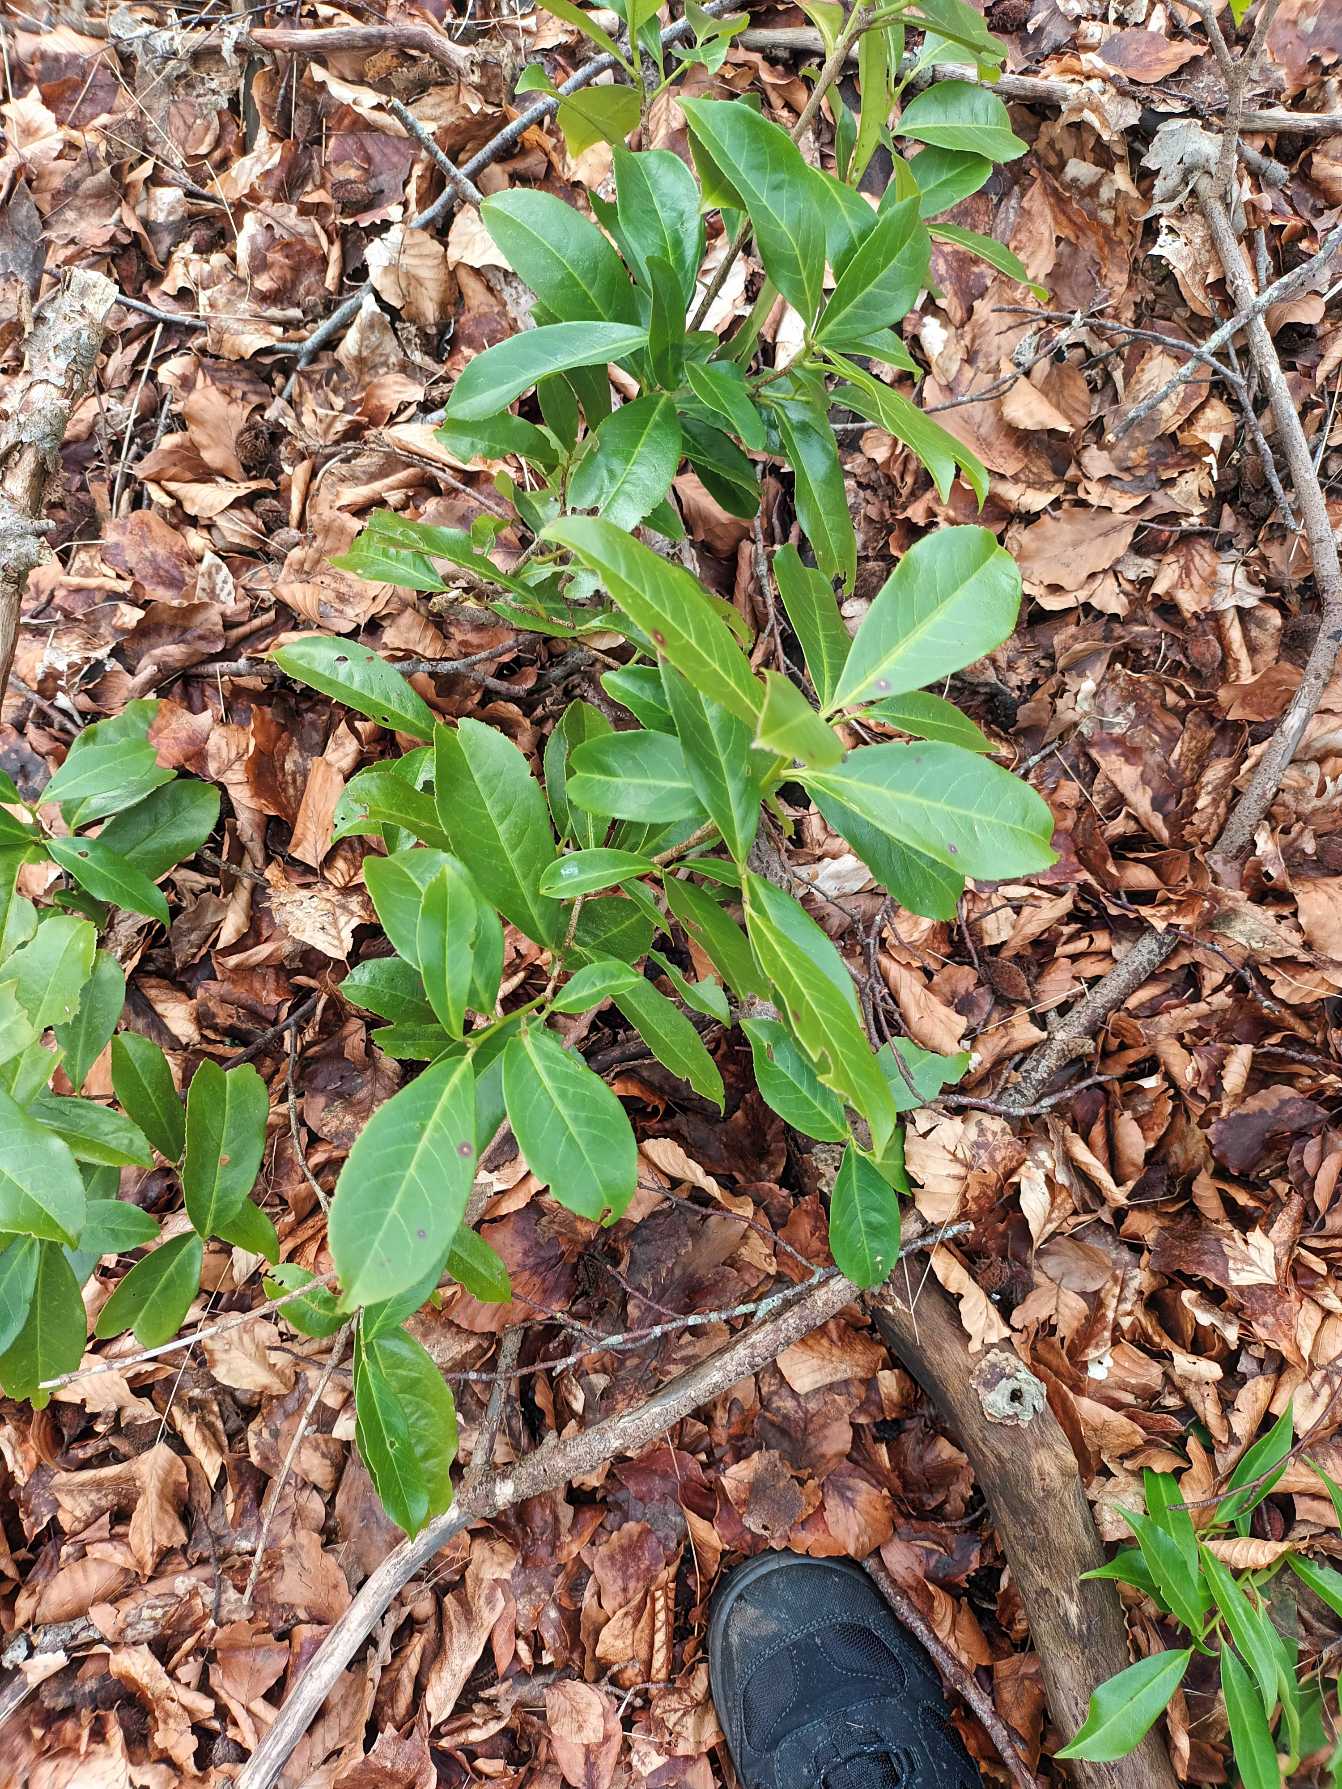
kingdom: Plantae
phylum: Tracheophyta
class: Magnoliopsida
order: Rosales
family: Rosaceae
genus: Prunus
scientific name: Prunus laurocerasus
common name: Laurbærkirsebær
